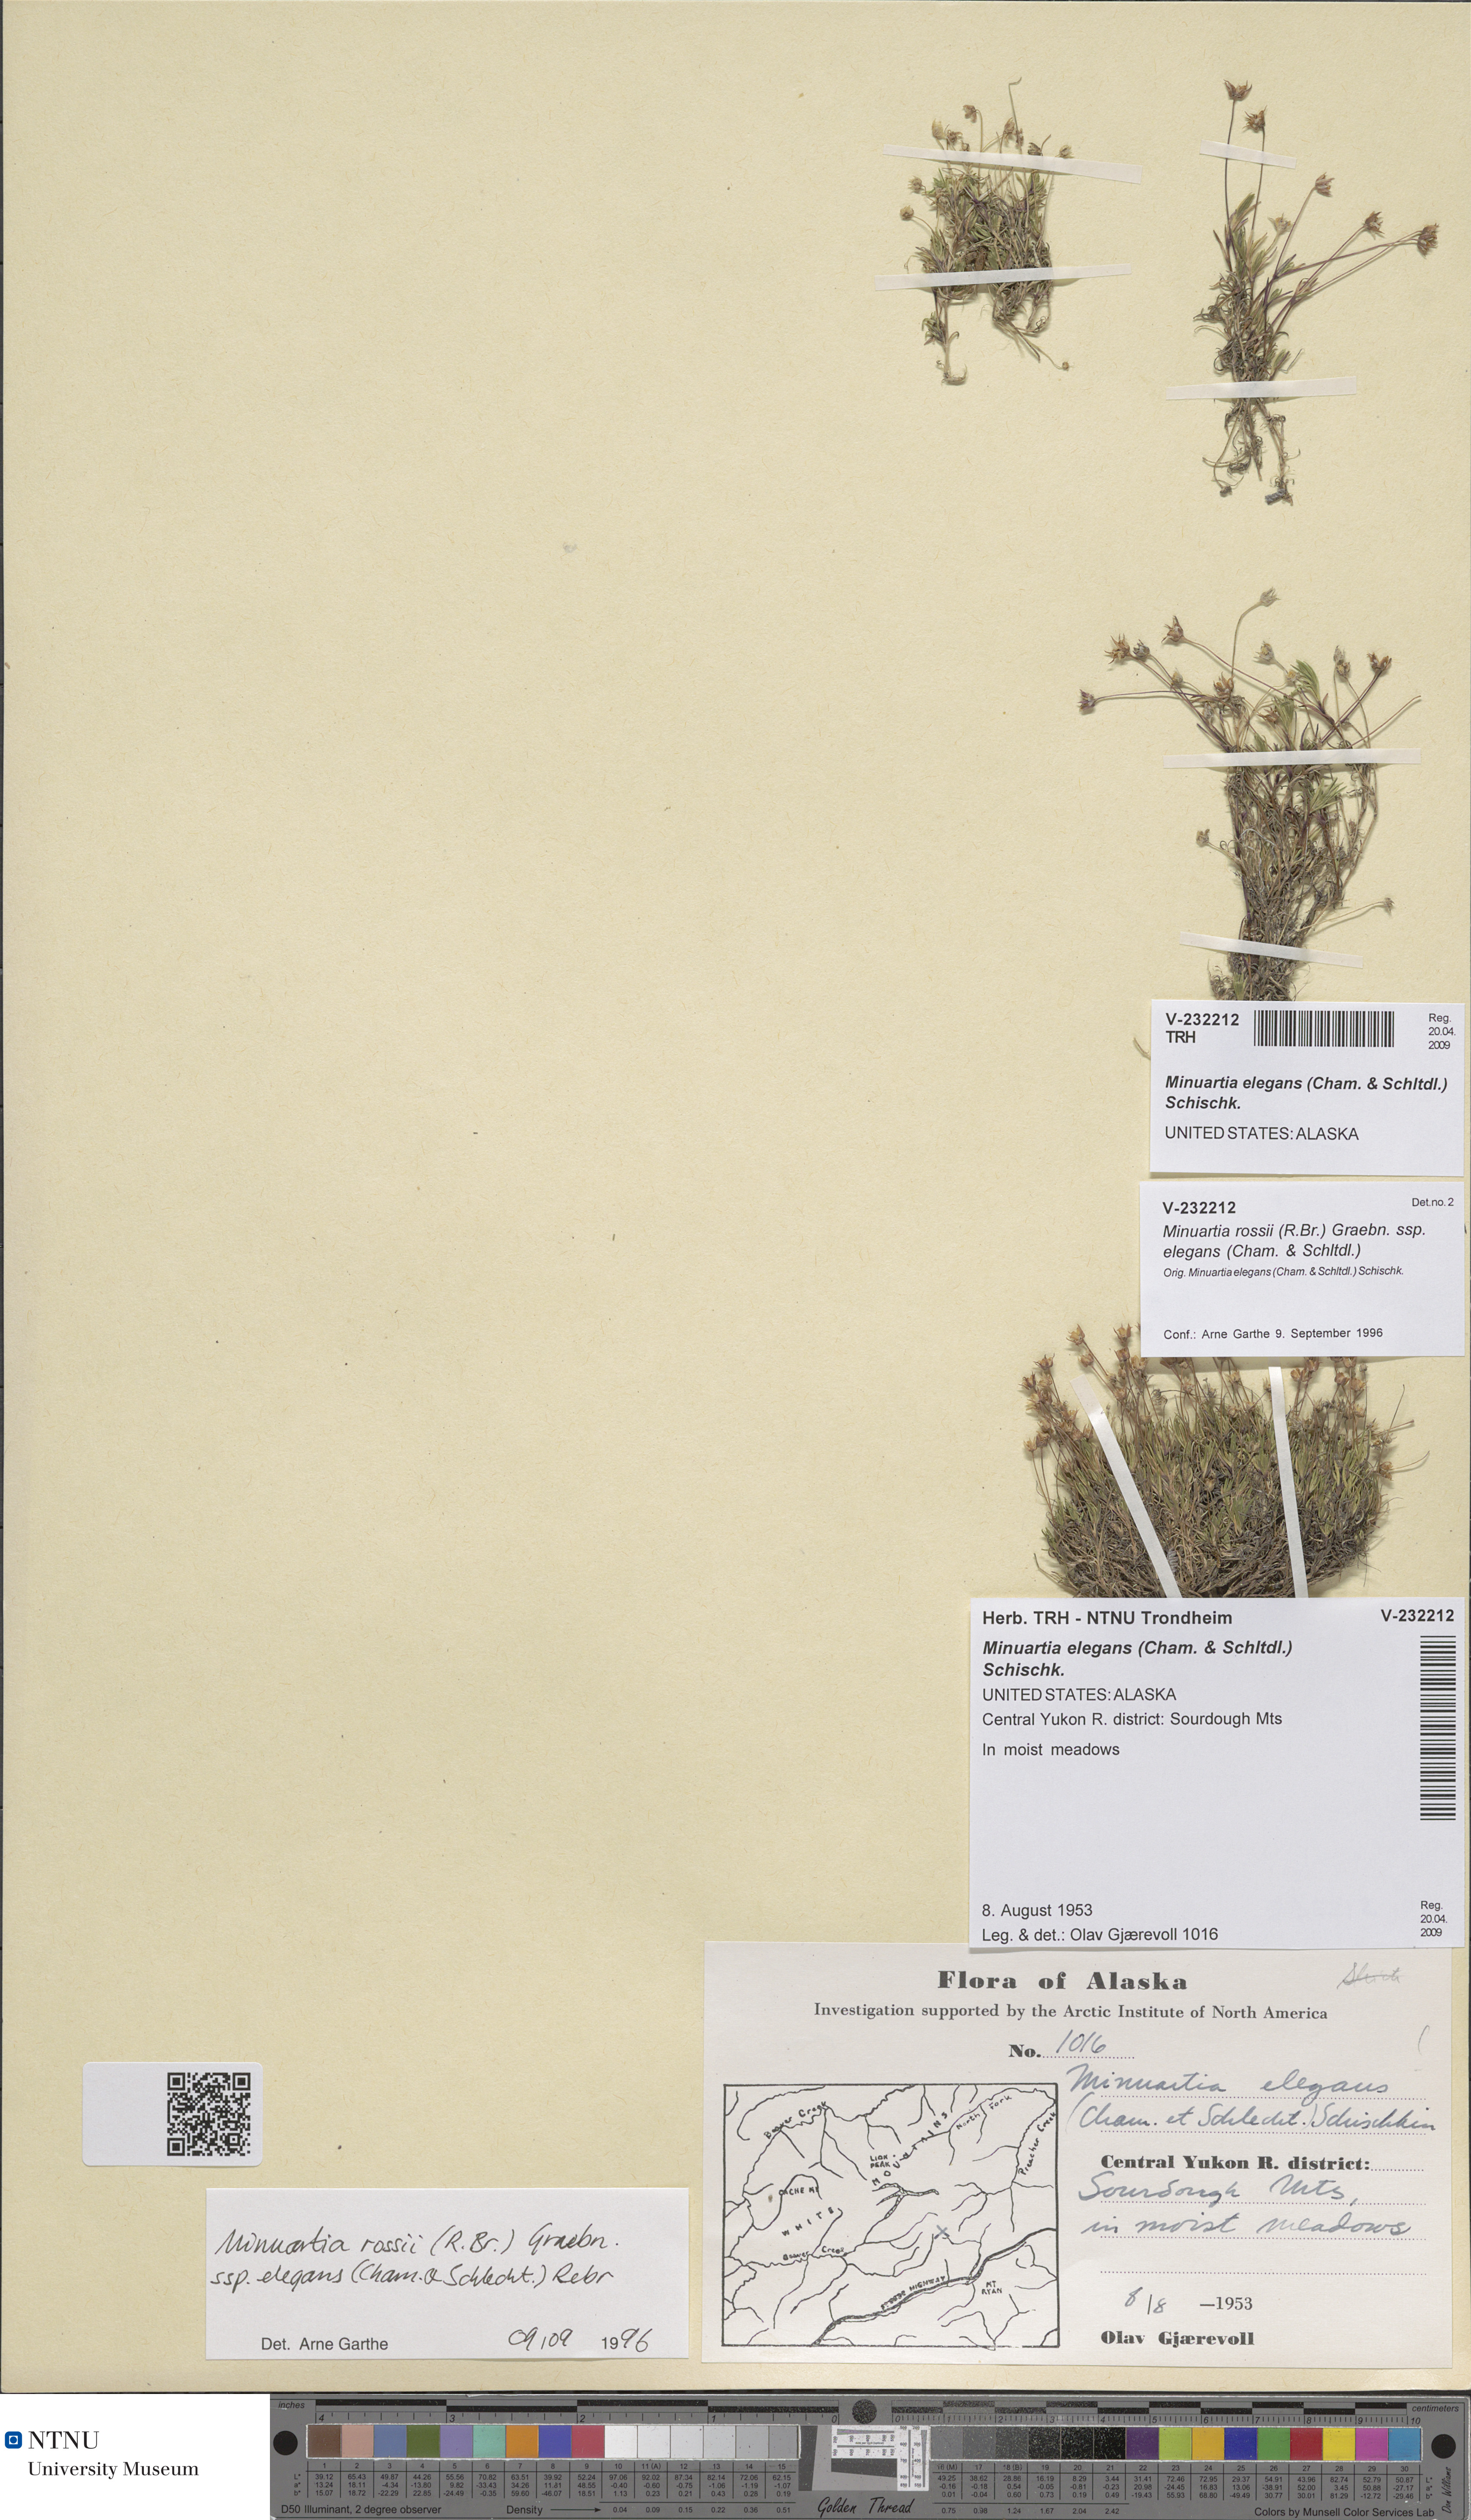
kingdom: Plantae
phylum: Tracheophyta
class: Magnoliopsida
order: Caryophyllales
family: Caryophyllaceae
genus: Sabulina
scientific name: Sabulina elegans
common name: Elegant stitchwort
